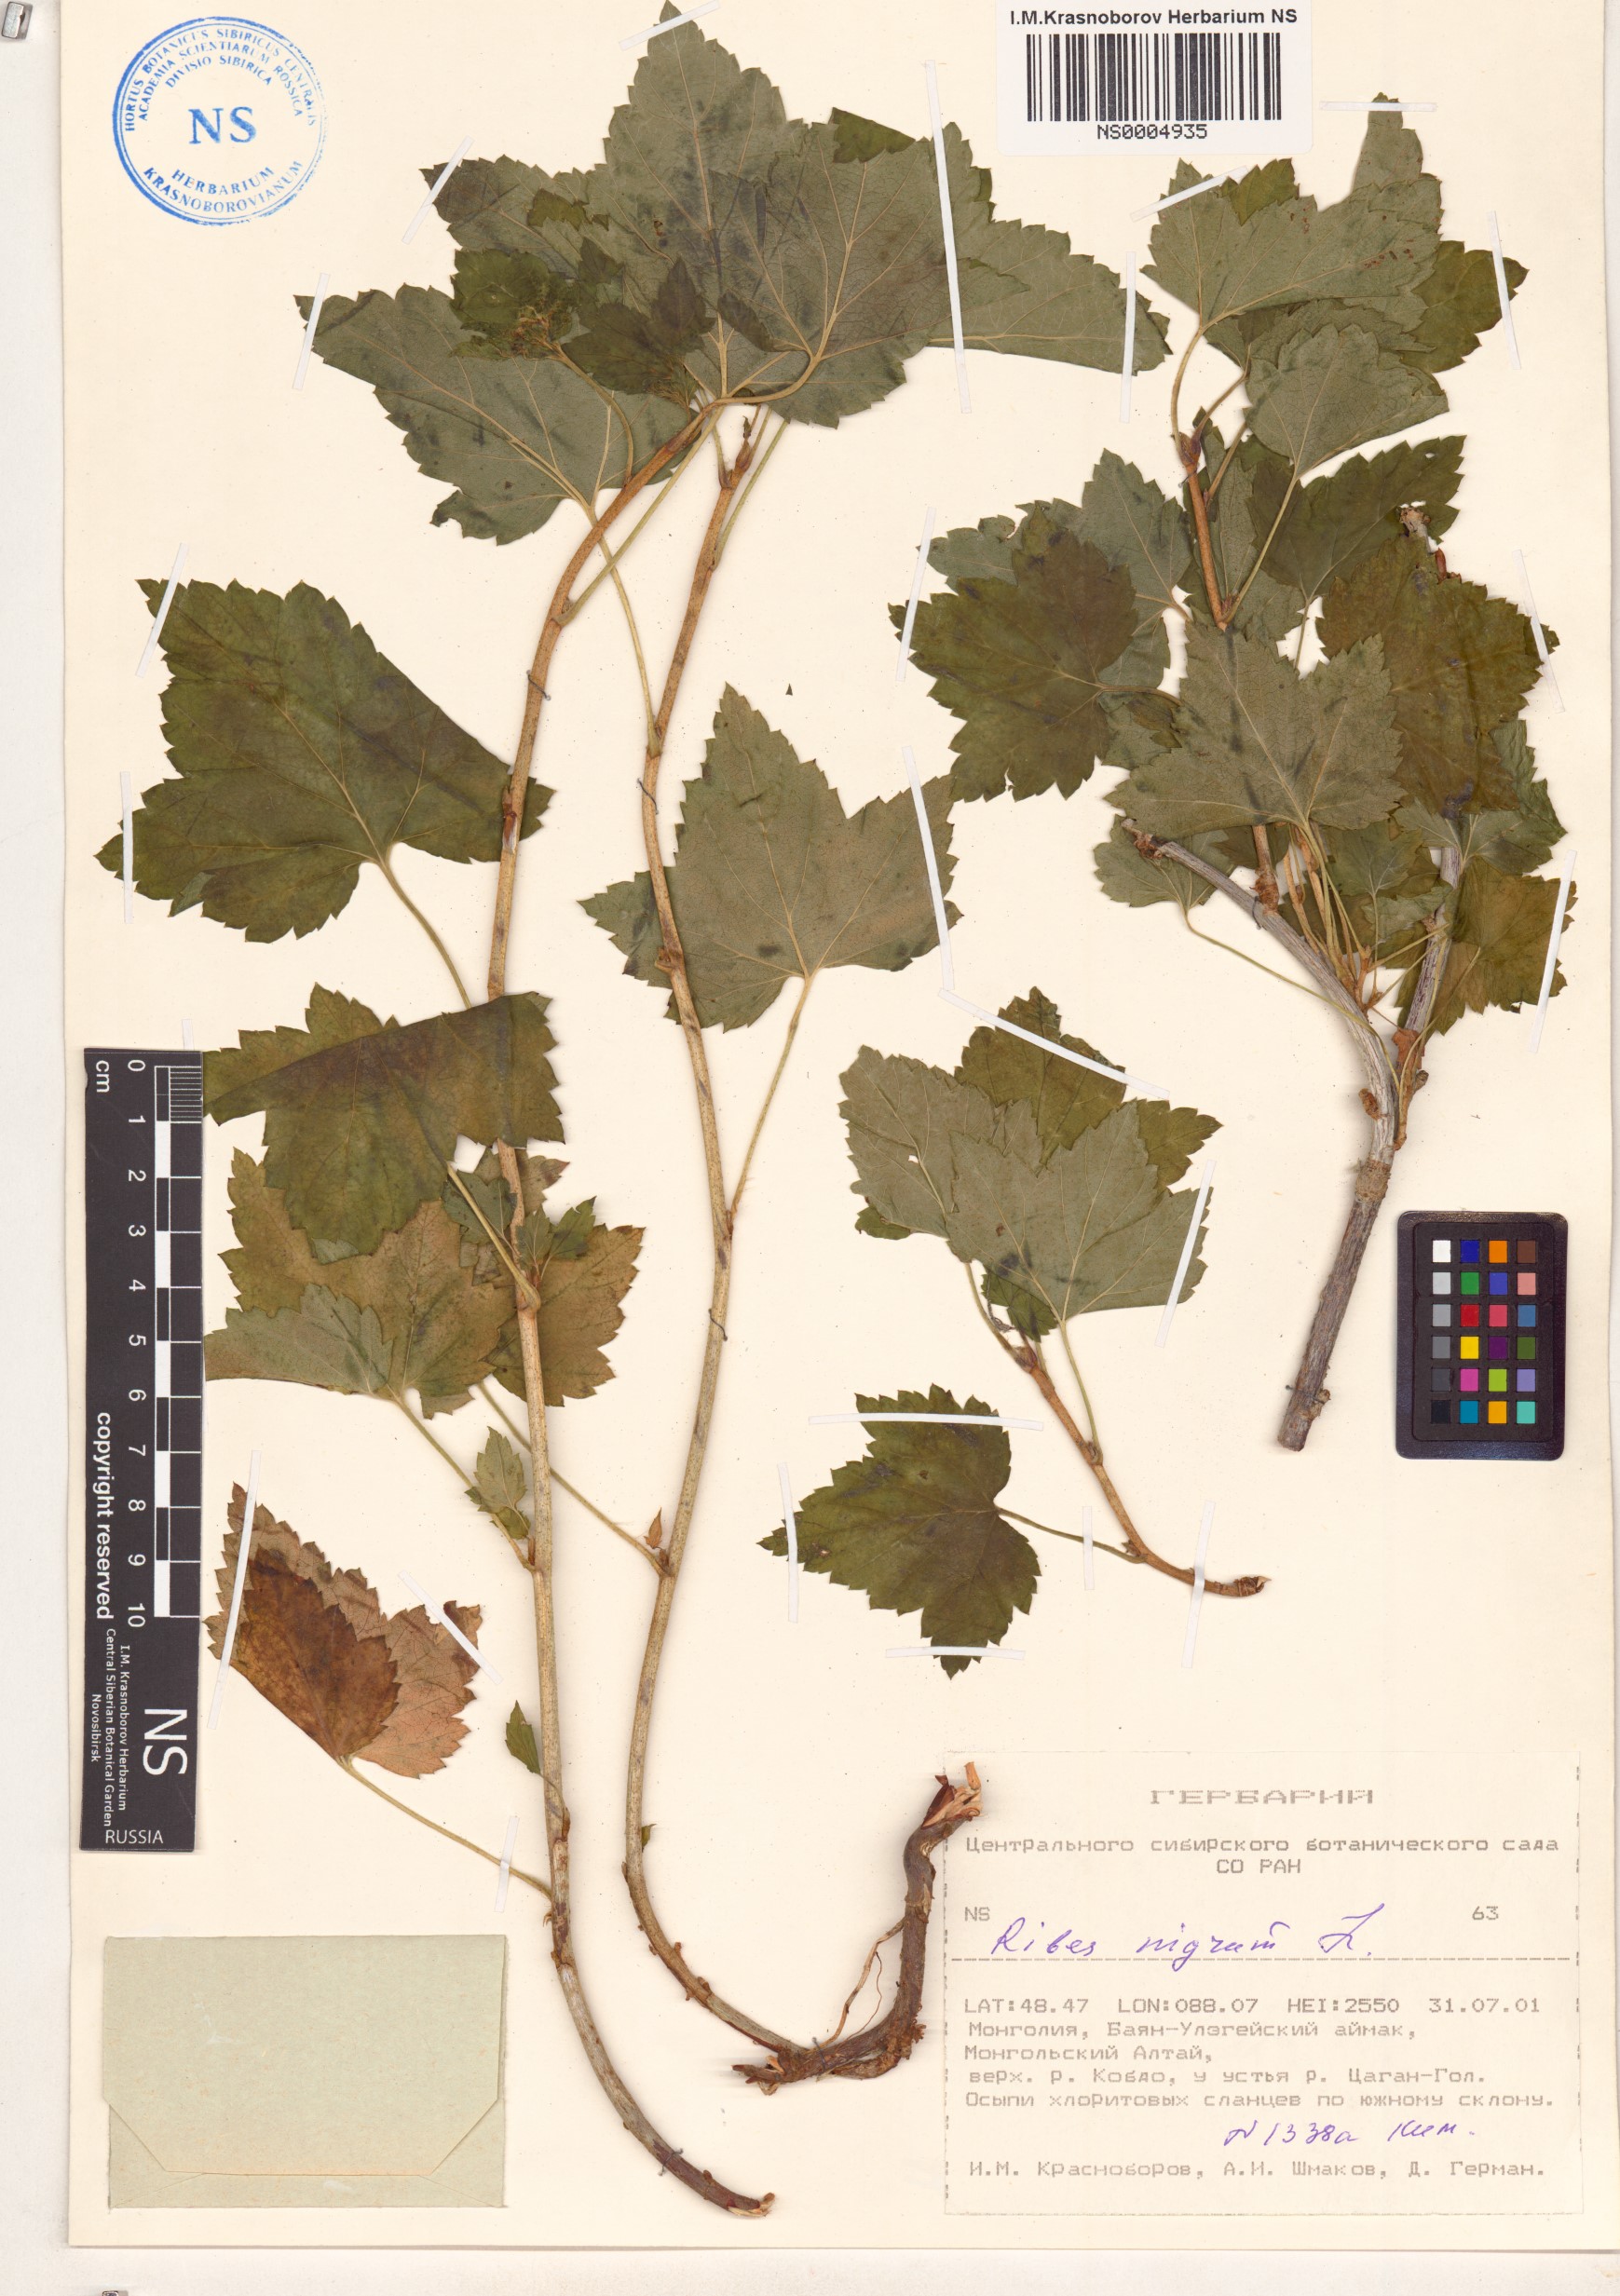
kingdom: Plantae
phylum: Tracheophyta
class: Magnoliopsida
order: Saxifragales
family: Grossulariaceae
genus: Ribes
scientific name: Ribes nigrum
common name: Black currant
